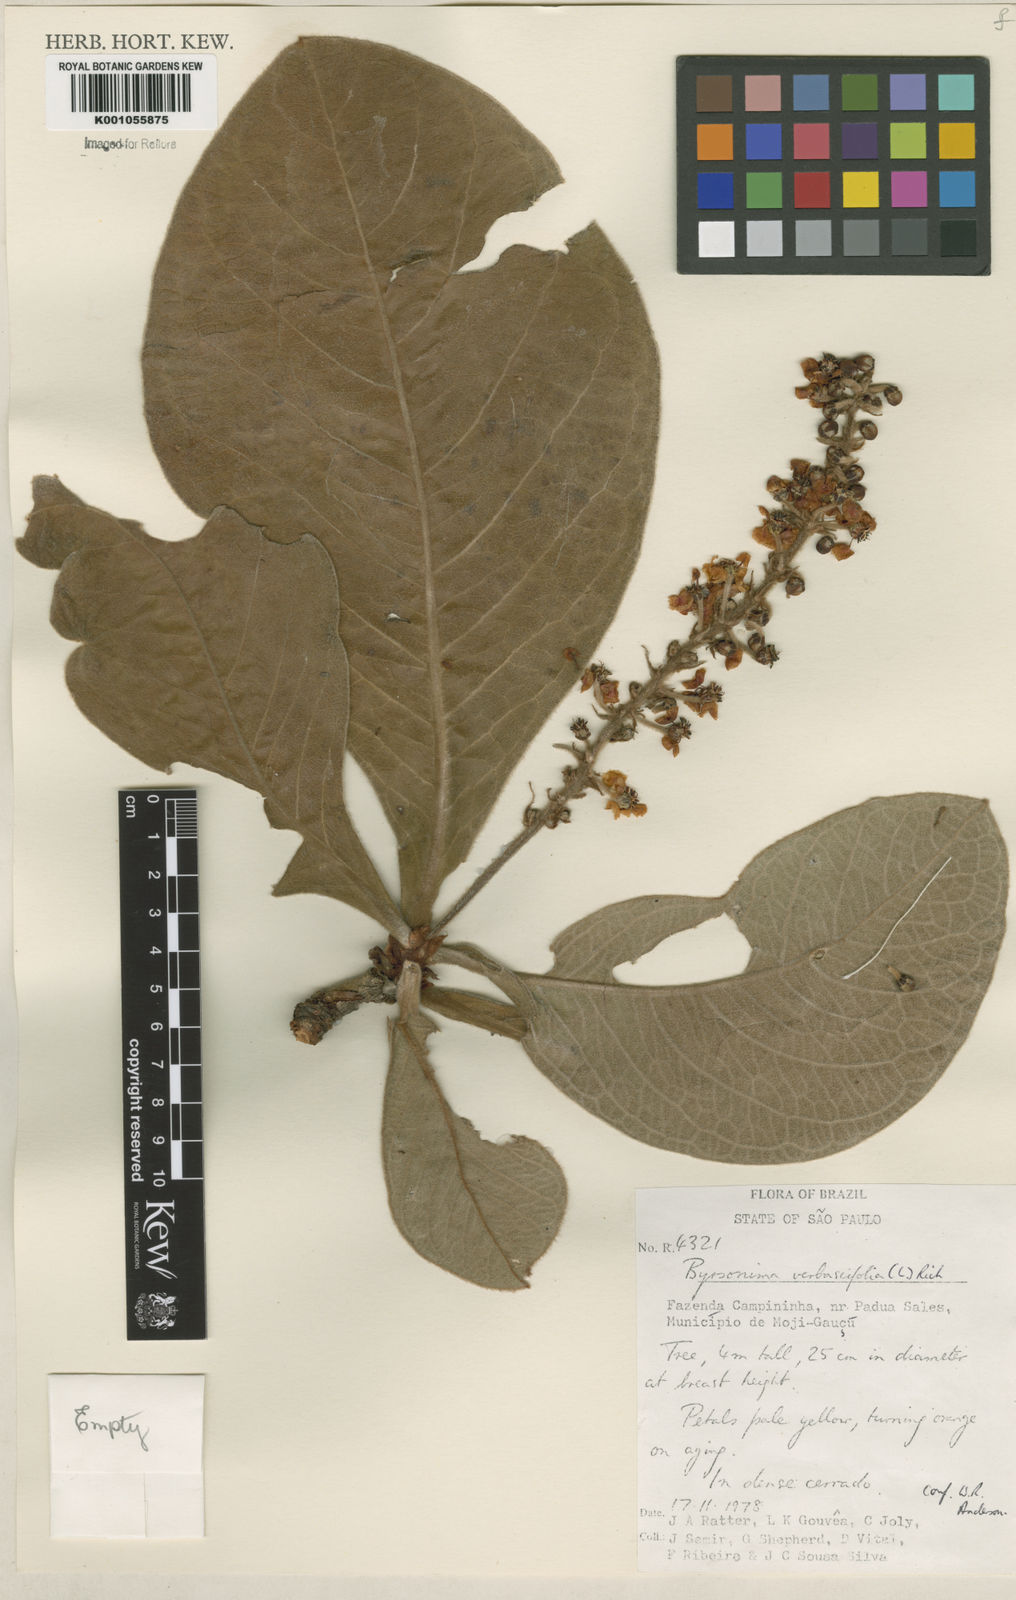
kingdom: Plantae
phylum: Tracheophyta
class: Magnoliopsida
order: Malpighiales
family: Malpighiaceae
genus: Byrsonima
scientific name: Byrsonima verbascifolia
